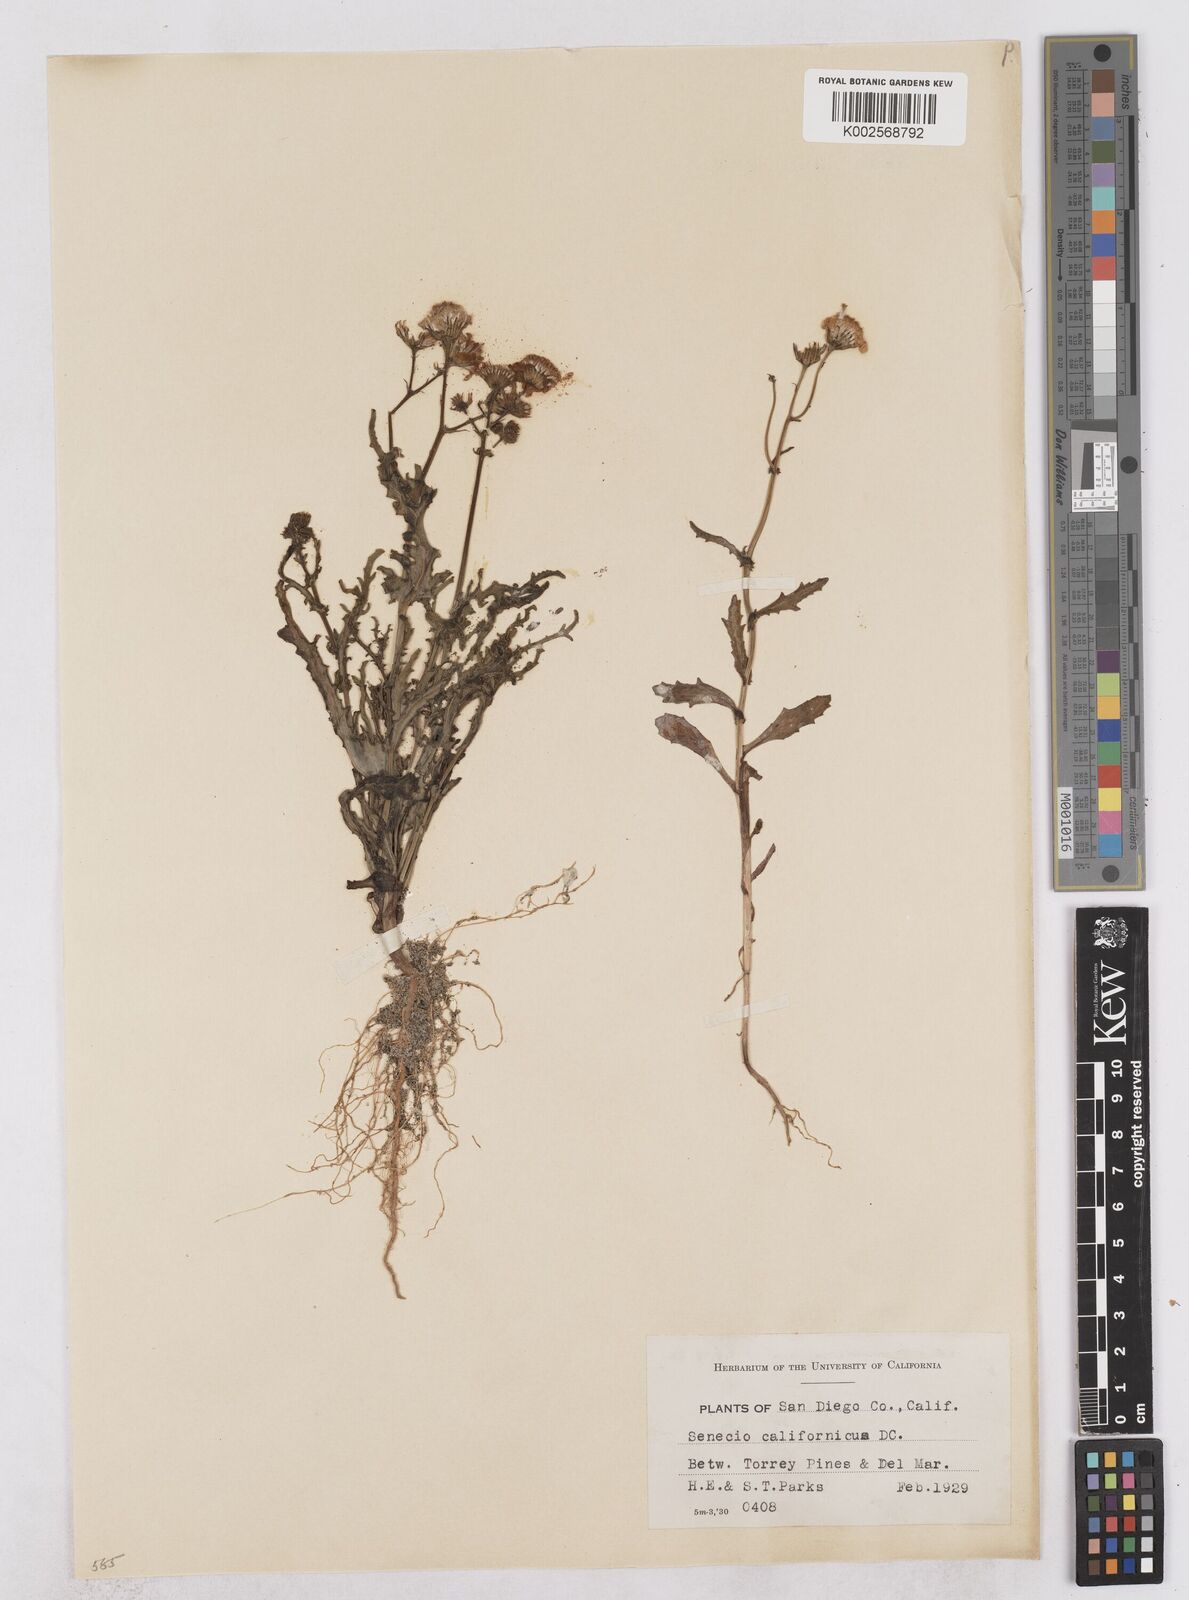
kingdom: Plantae
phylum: Tracheophyta
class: Magnoliopsida
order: Asterales
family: Asteraceae
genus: Senecio
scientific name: Senecio californicus
